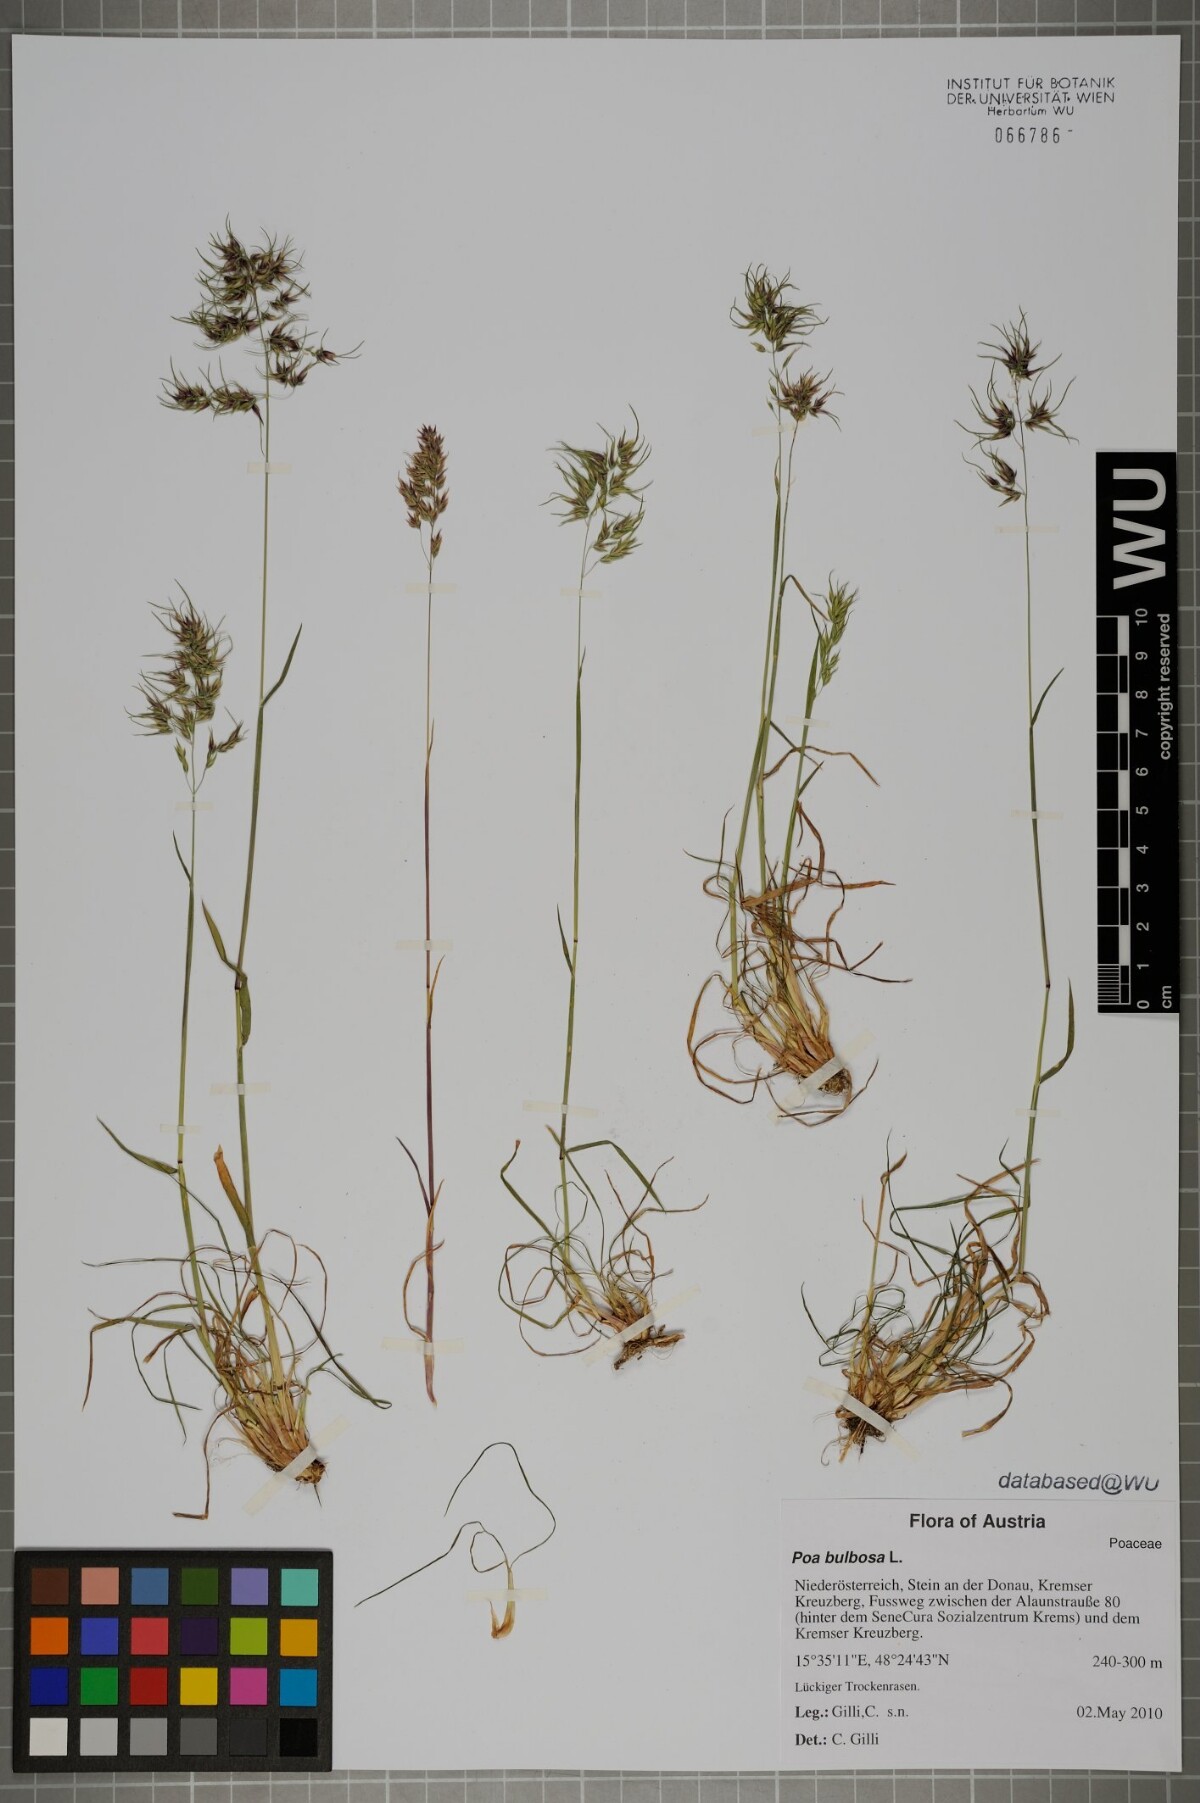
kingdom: Plantae
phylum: Tracheophyta
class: Liliopsida
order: Poales
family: Poaceae
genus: Poa
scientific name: Poa bulbosa
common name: Bulbous bluegrass
